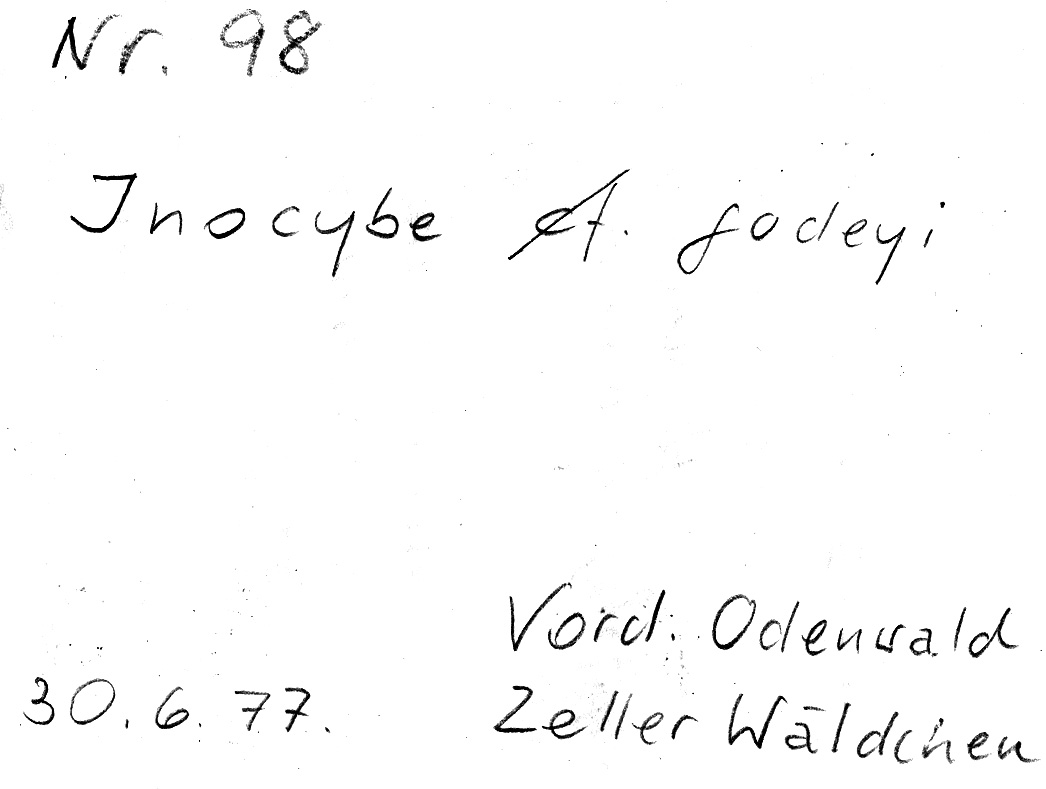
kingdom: Fungi
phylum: Basidiomycota
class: Agaricomycetes
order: Agaricales
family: Inocybaceae
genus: Inocybe
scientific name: Inocybe godeyi
